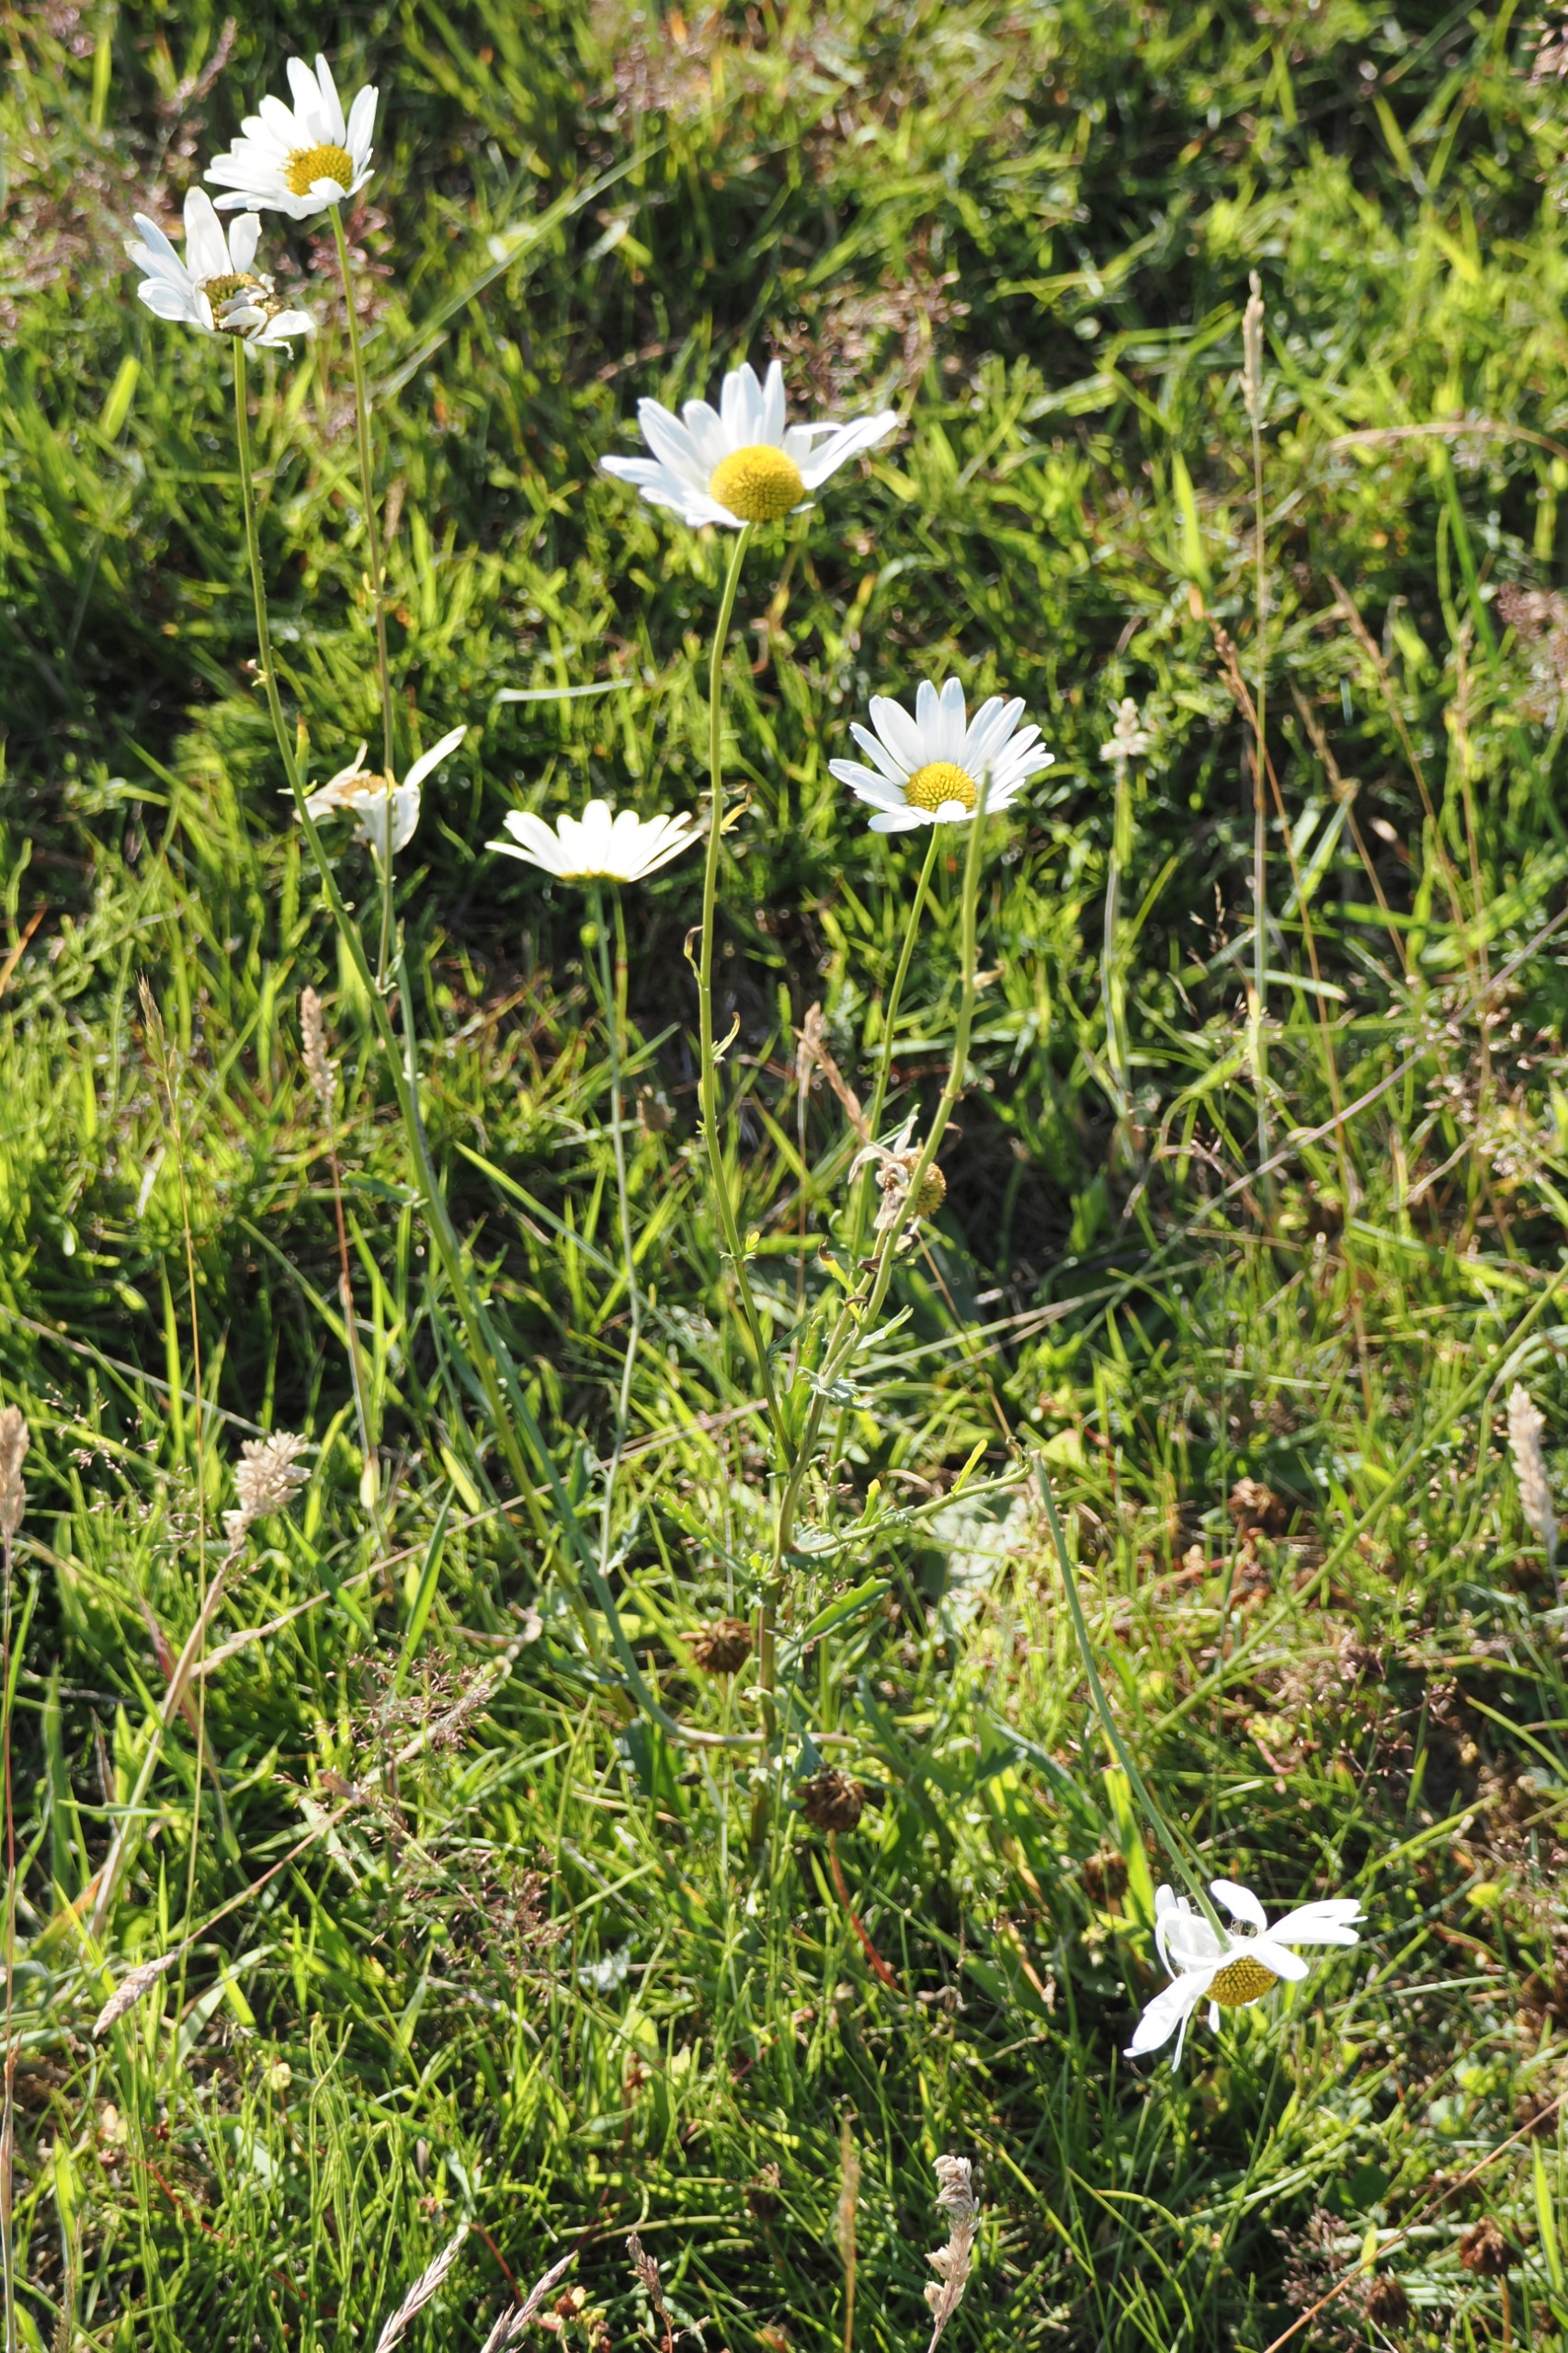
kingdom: Plantae
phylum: Tracheophyta
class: Magnoliopsida
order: Asterales
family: Asteraceae
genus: Leucanthemum
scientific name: Leucanthemum vulgare
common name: Hvid okseøje
